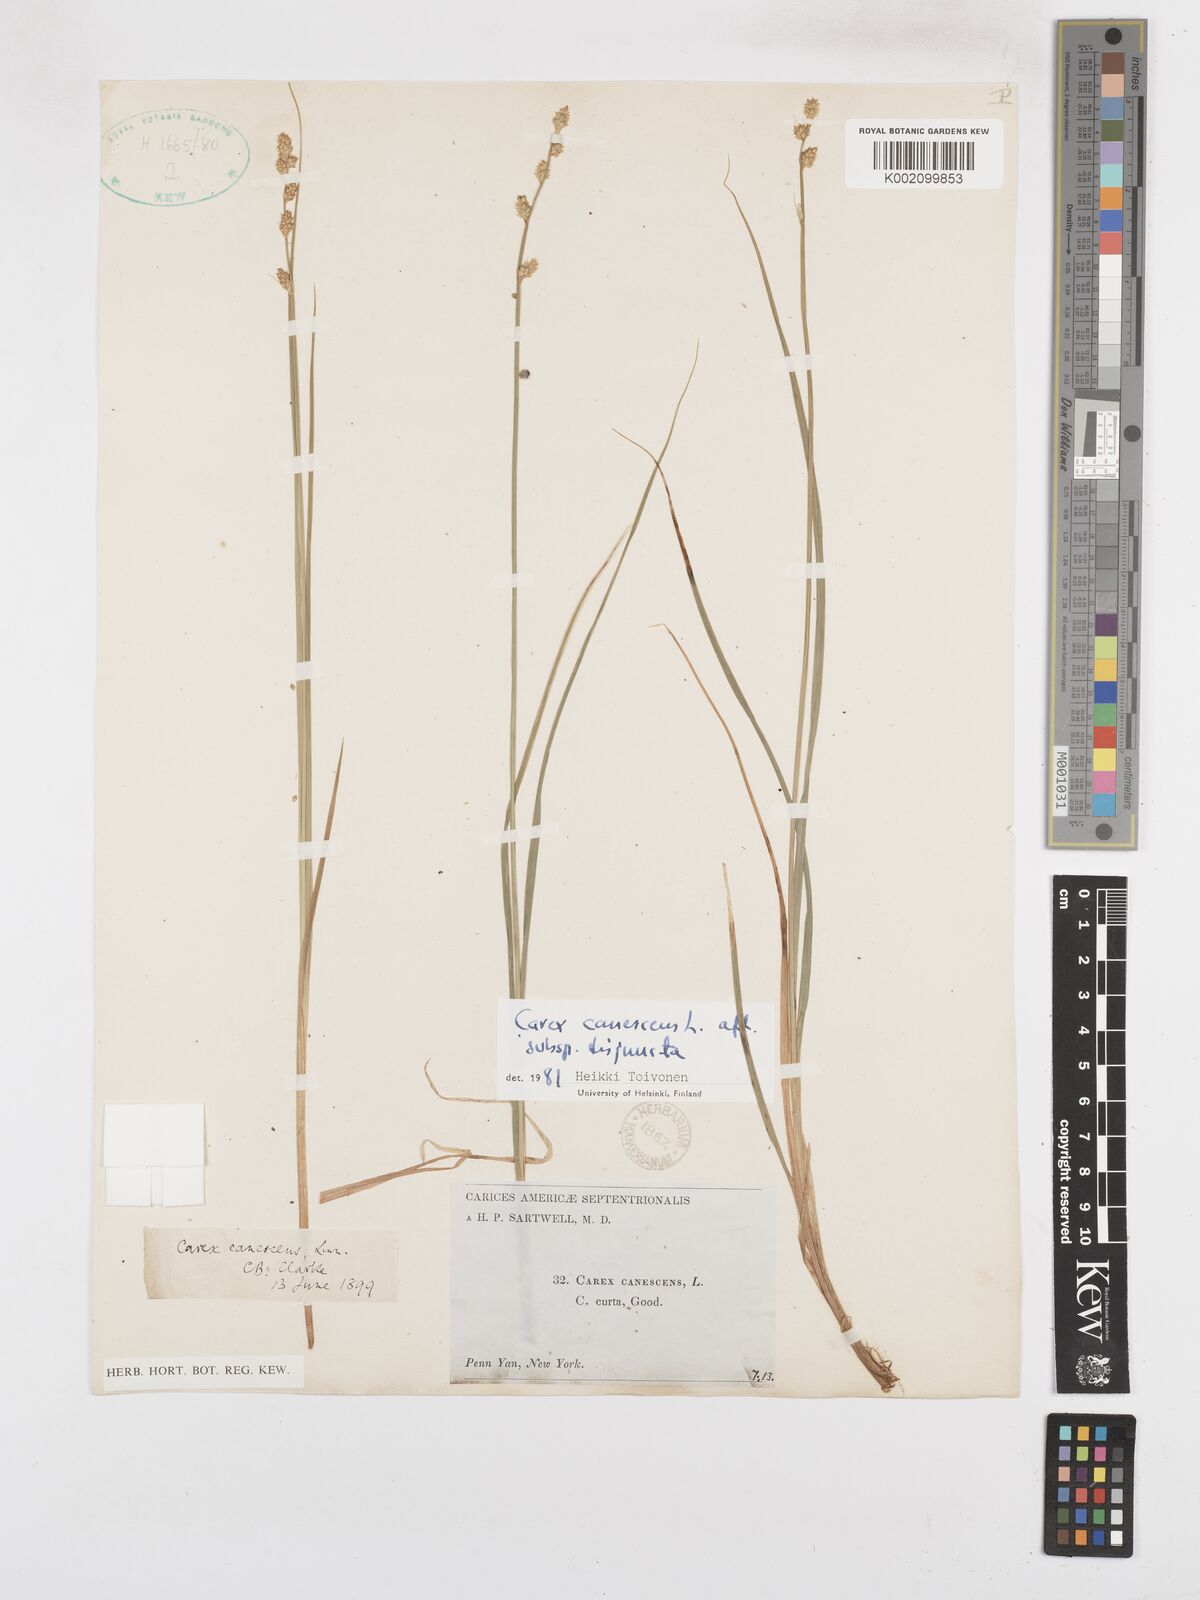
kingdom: Plantae
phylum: Tracheophyta
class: Liliopsida
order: Poales
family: Cyperaceae
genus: Carex
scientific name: Carex curta
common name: White sedge
